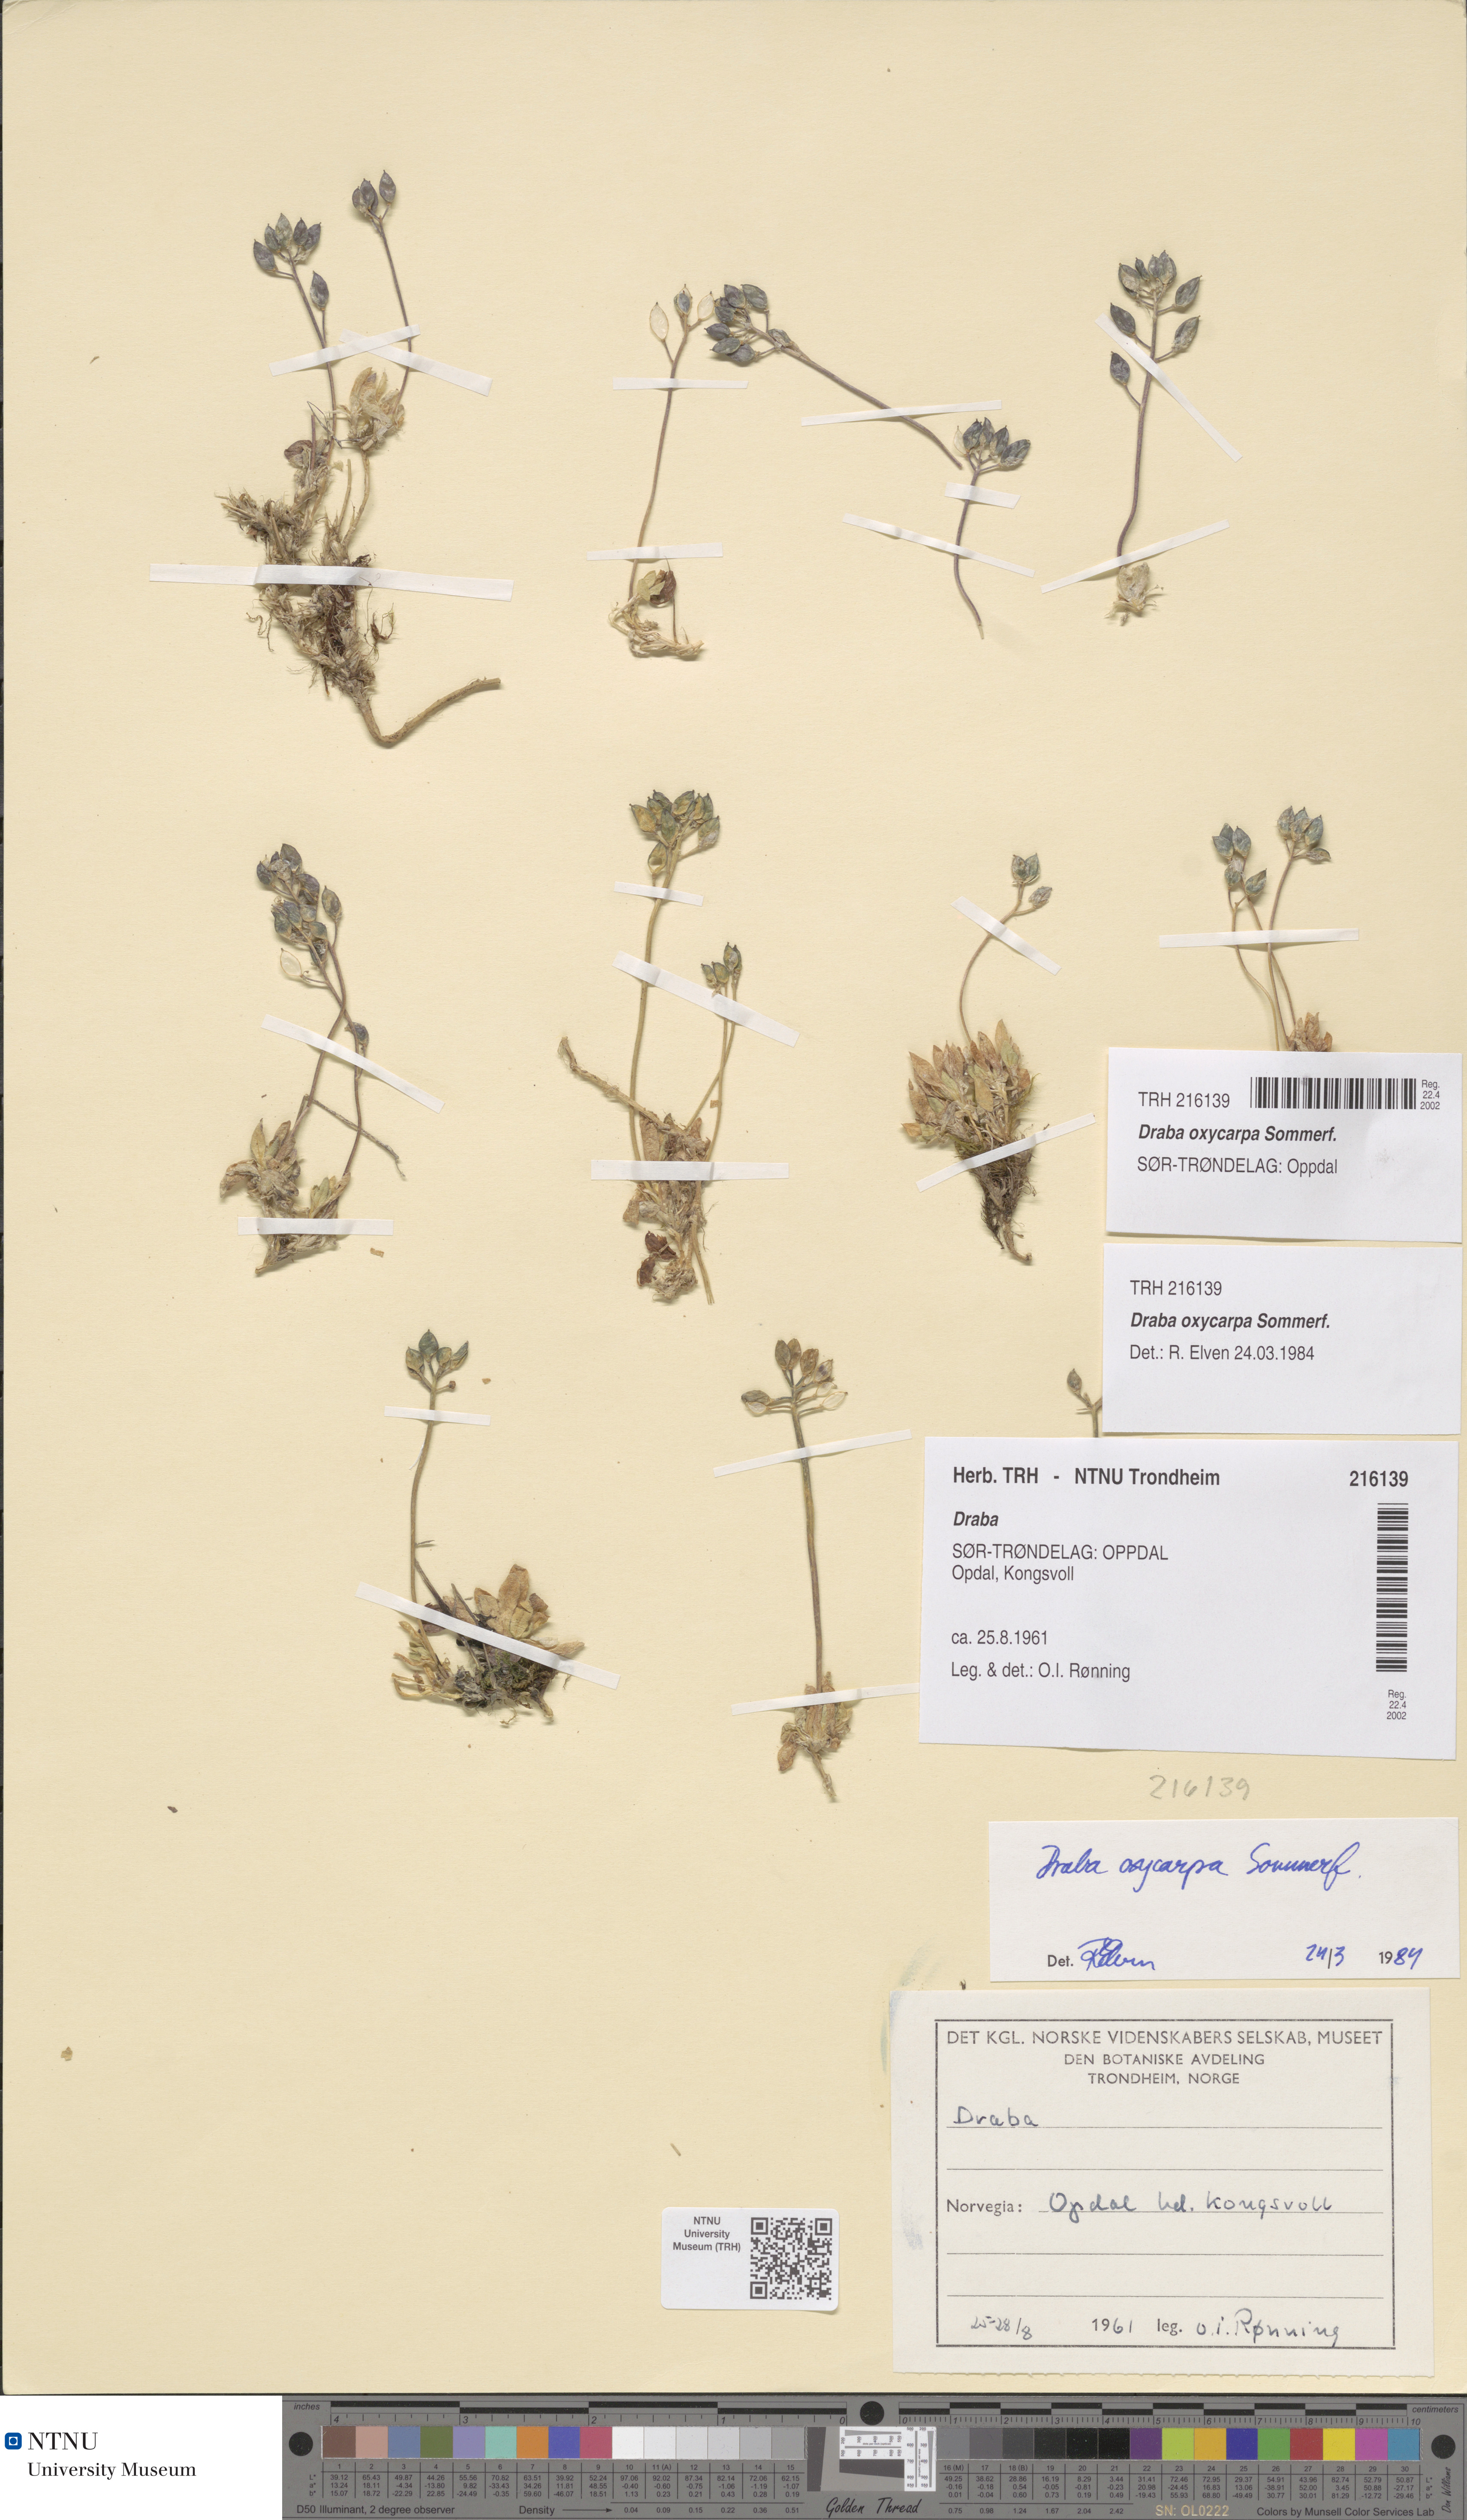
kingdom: Plantae
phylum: Tracheophyta
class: Magnoliopsida
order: Brassicales
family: Brassicaceae
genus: Draba
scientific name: Draba oxycarpa
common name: Sharp-fruited whitlow-grass
